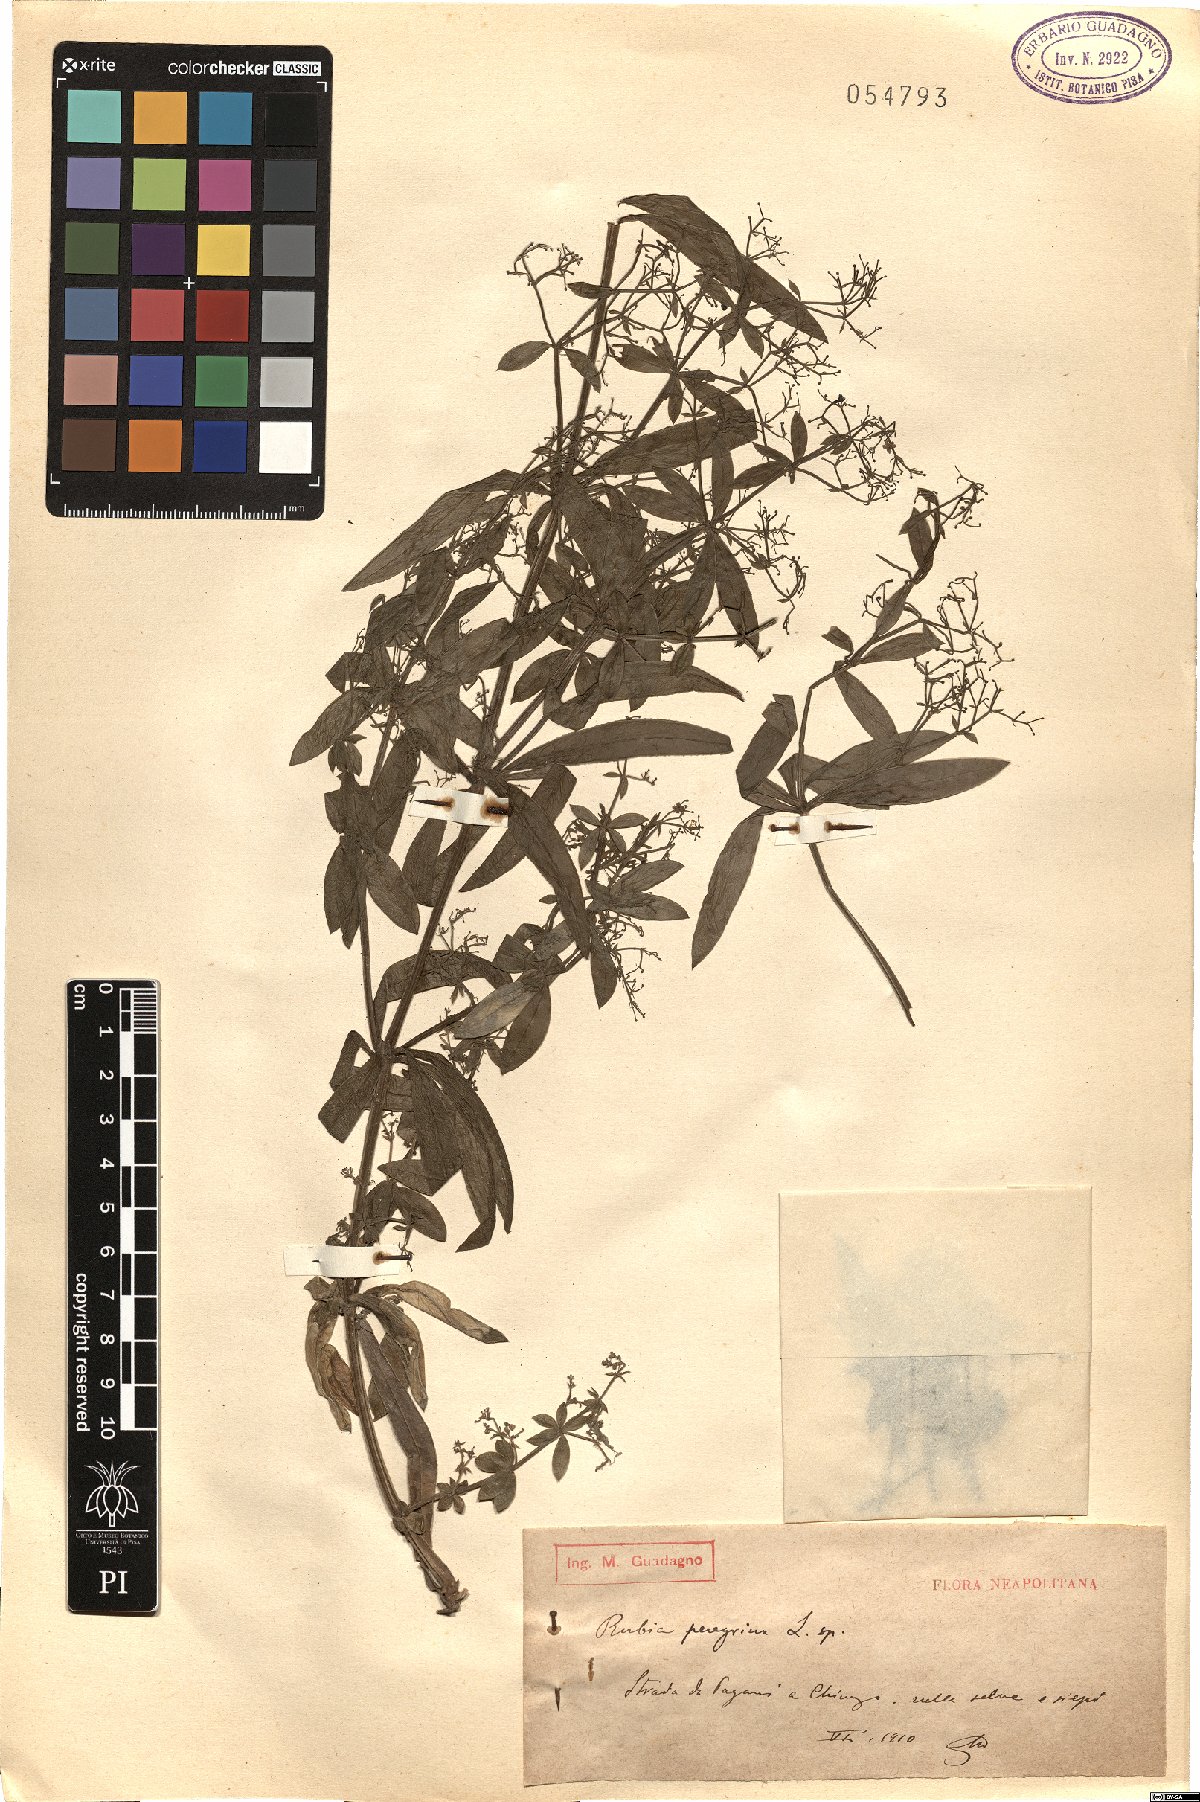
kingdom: Plantae
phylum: Tracheophyta
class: Magnoliopsida
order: Gentianales
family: Rubiaceae
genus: Rubia
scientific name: Rubia peregrina
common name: Wild madder
